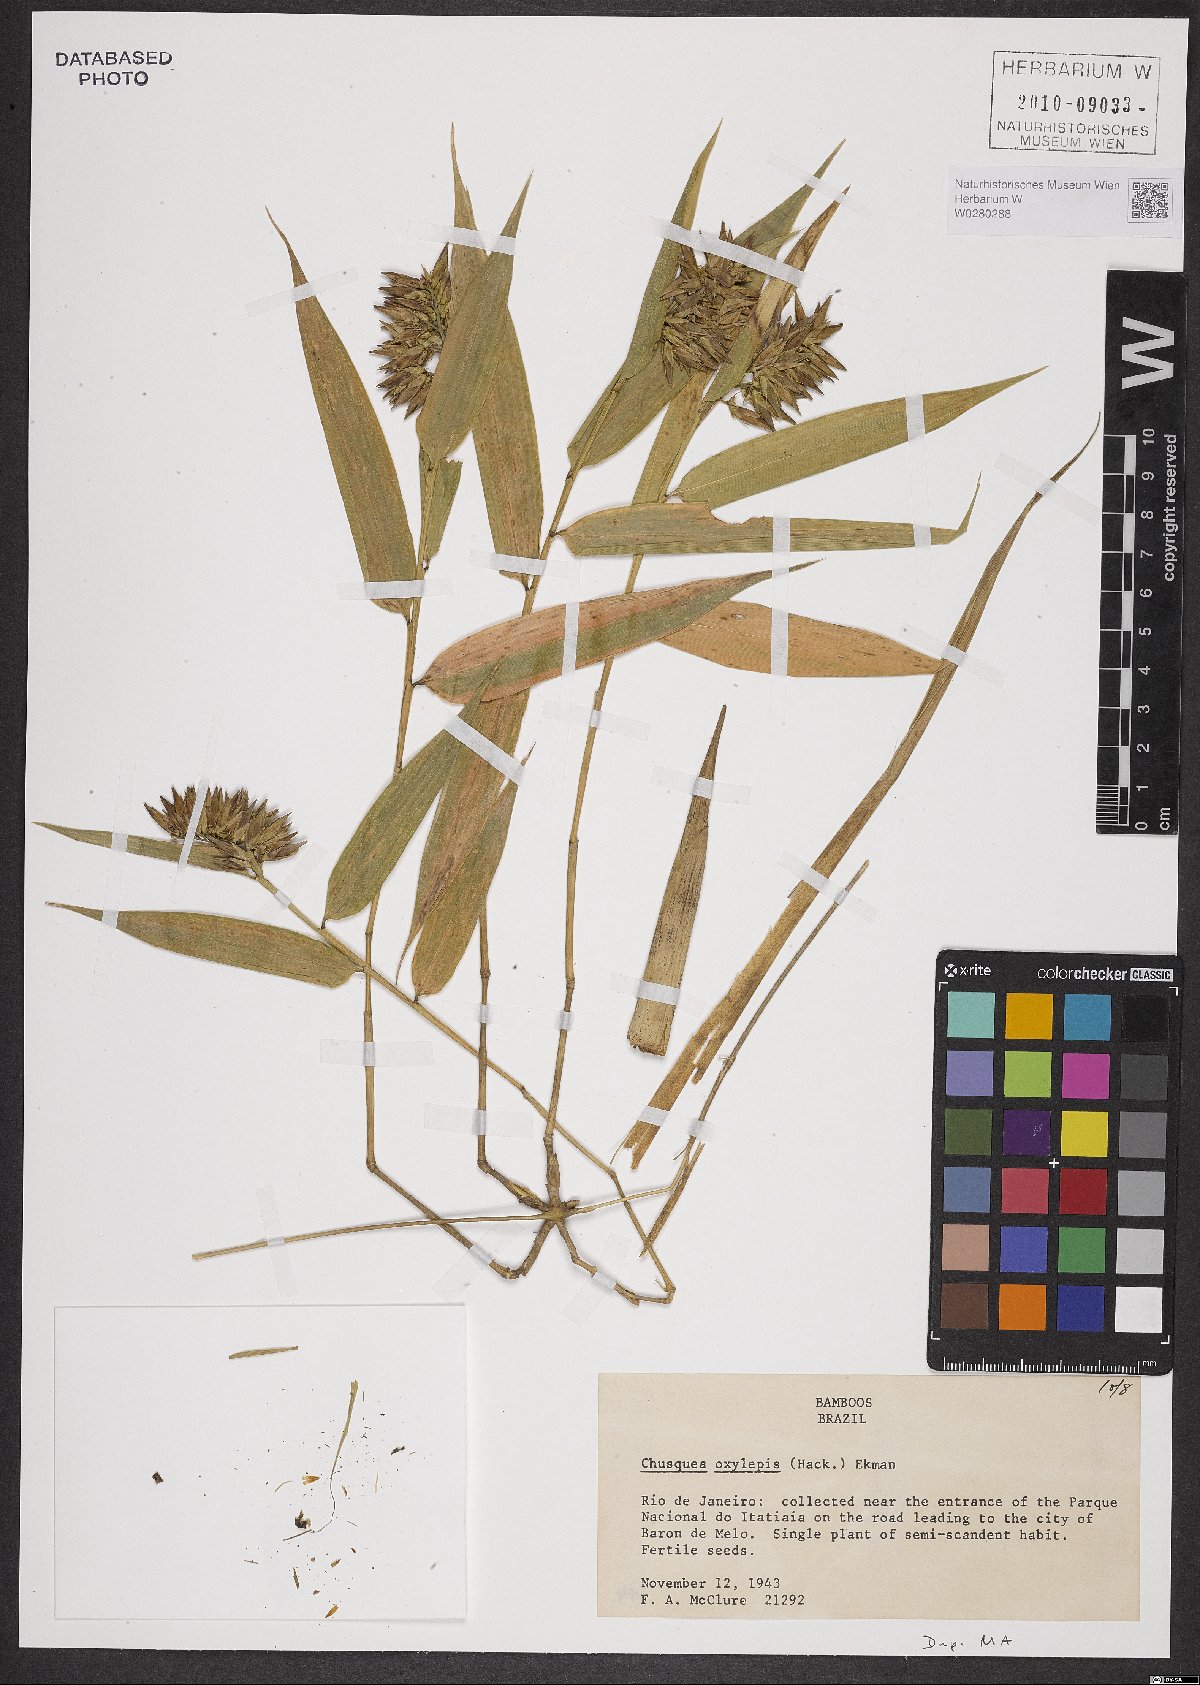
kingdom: Plantae
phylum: Tracheophyta
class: Liliopsida
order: Poales
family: Poaceae
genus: Chusquea
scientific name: Chusquea oxylepis
